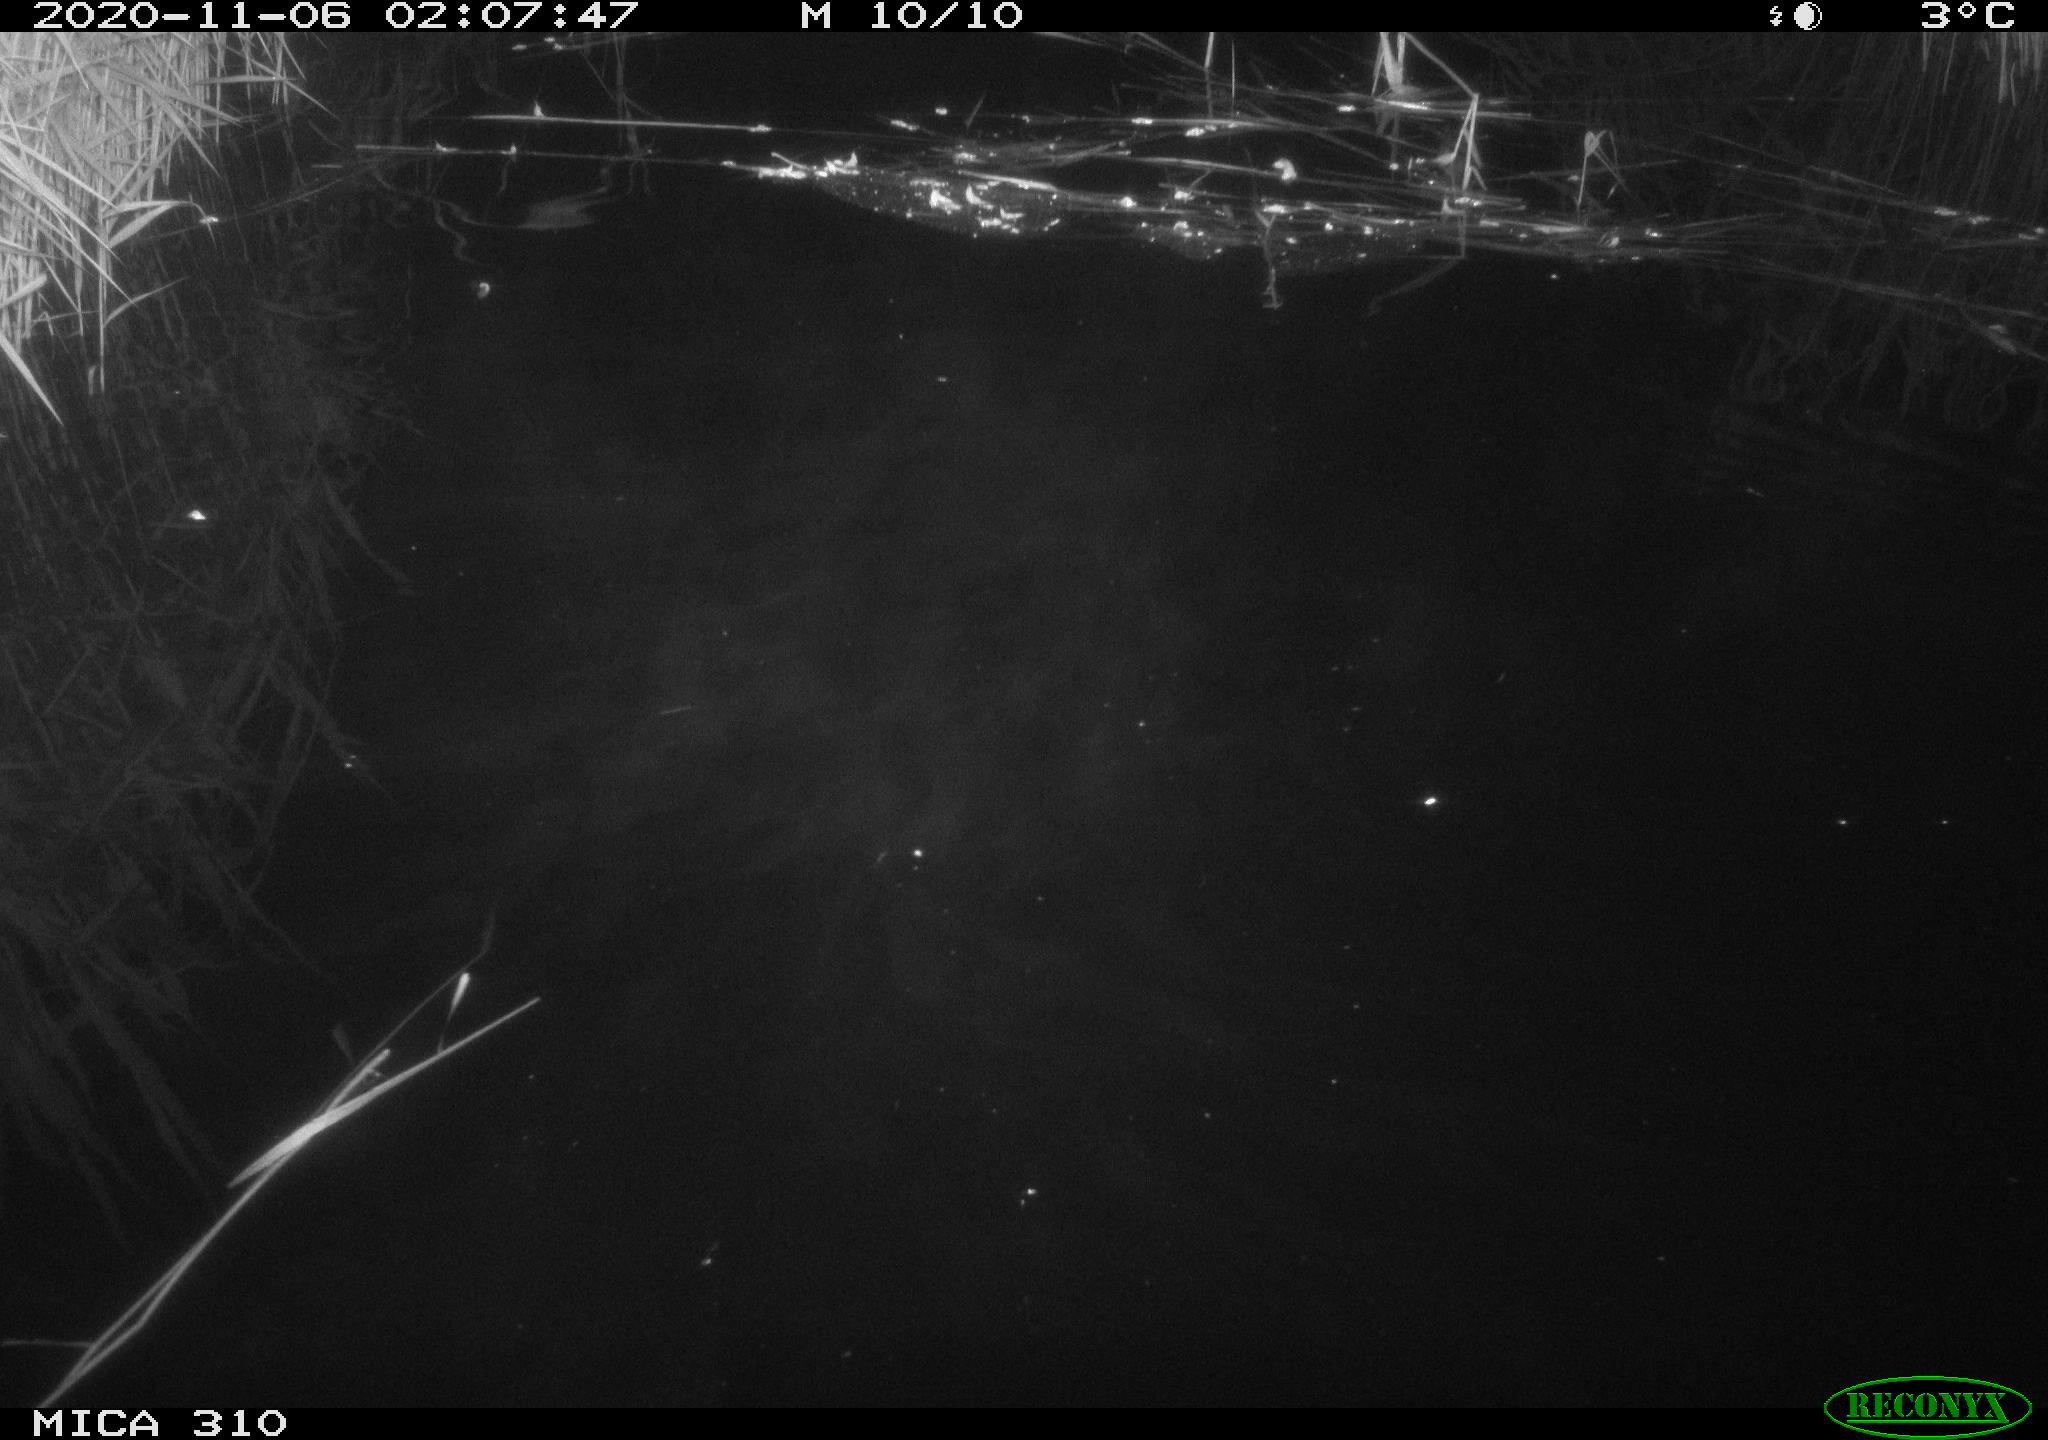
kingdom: Animalia
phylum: Chordata
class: Mammalia
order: Rodentia
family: Muridae
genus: Rattus
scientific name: Rattus norvegicus
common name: Brown rat
